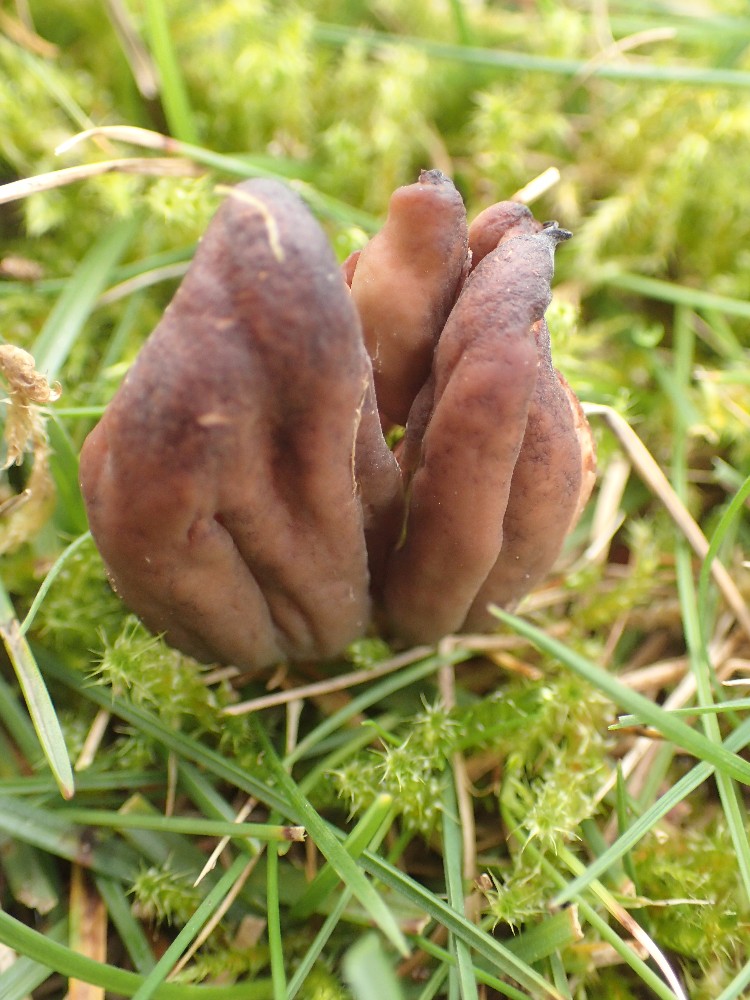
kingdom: Fungi
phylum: Ascomycota
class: Leotiomycetes
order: Leotiales
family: Leotiaceae
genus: Microglossum
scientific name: Microglossum olivaceum
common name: olivenbrun farvetunge
